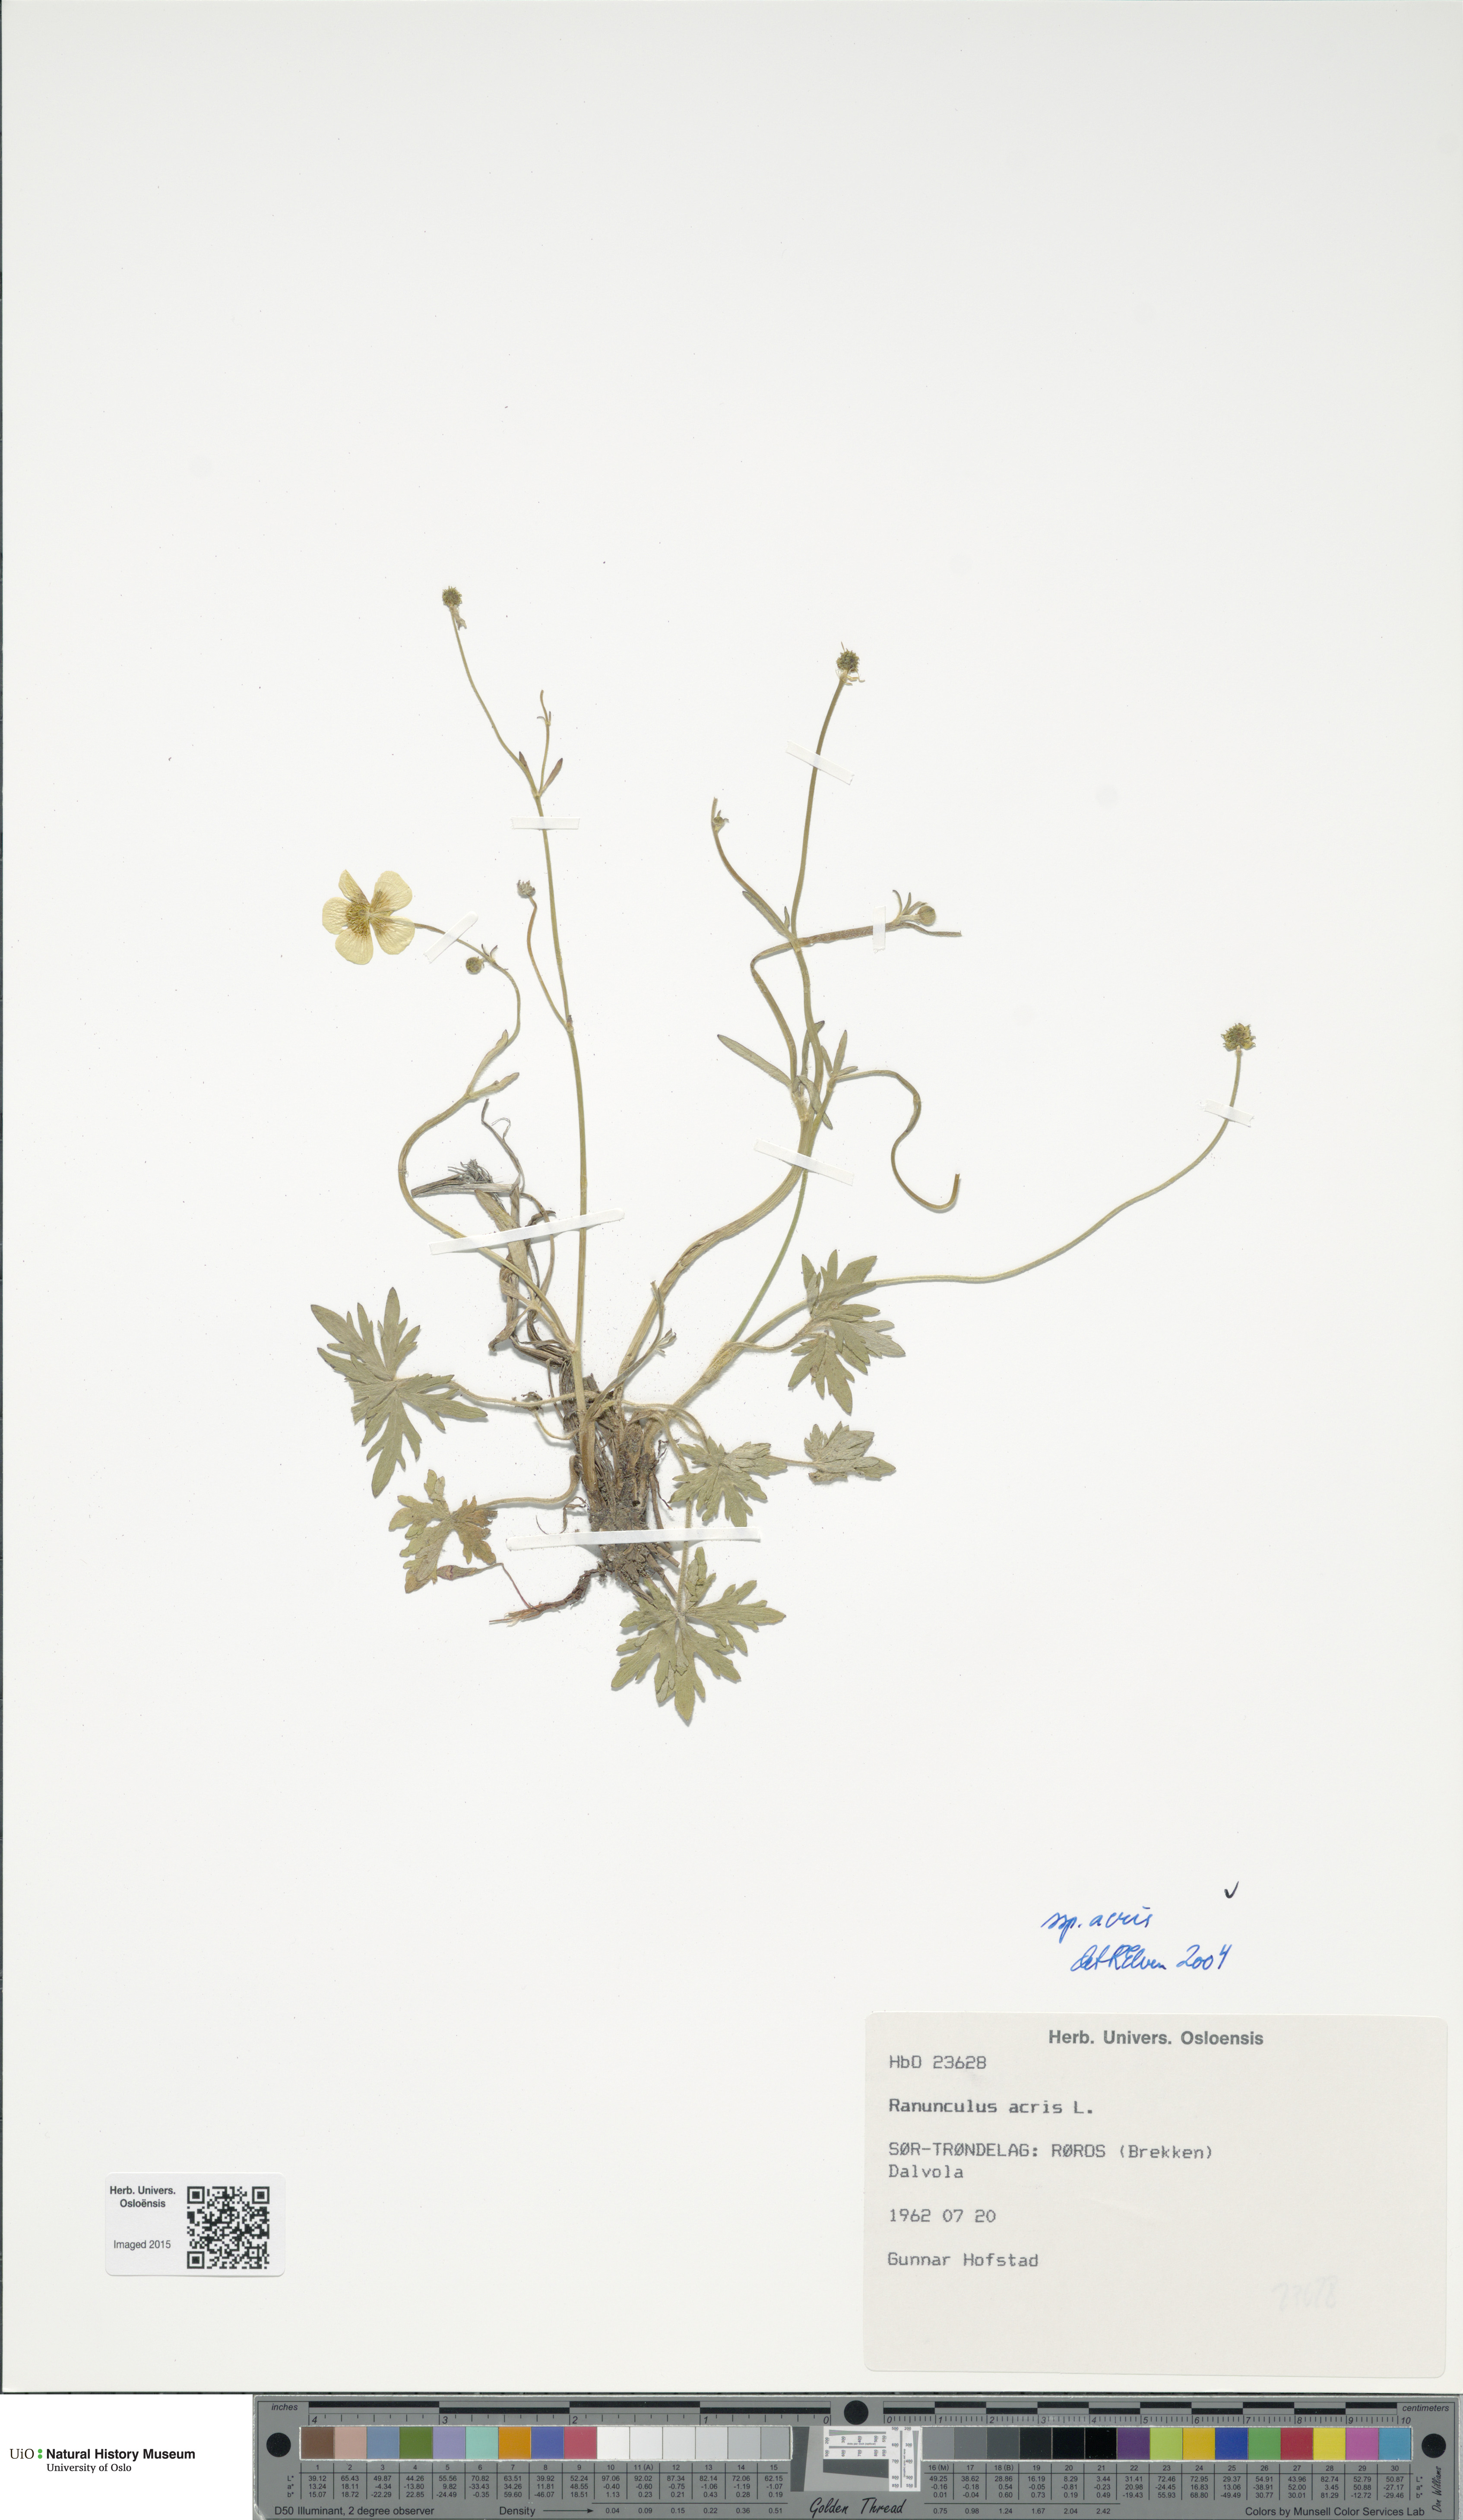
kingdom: Plantae
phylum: Tracheophyta
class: Magnoliopsida
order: Ranunculales
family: Ranunculaceae
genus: Ranunculus
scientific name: Ranunculus acris
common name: Meadow buttercup
